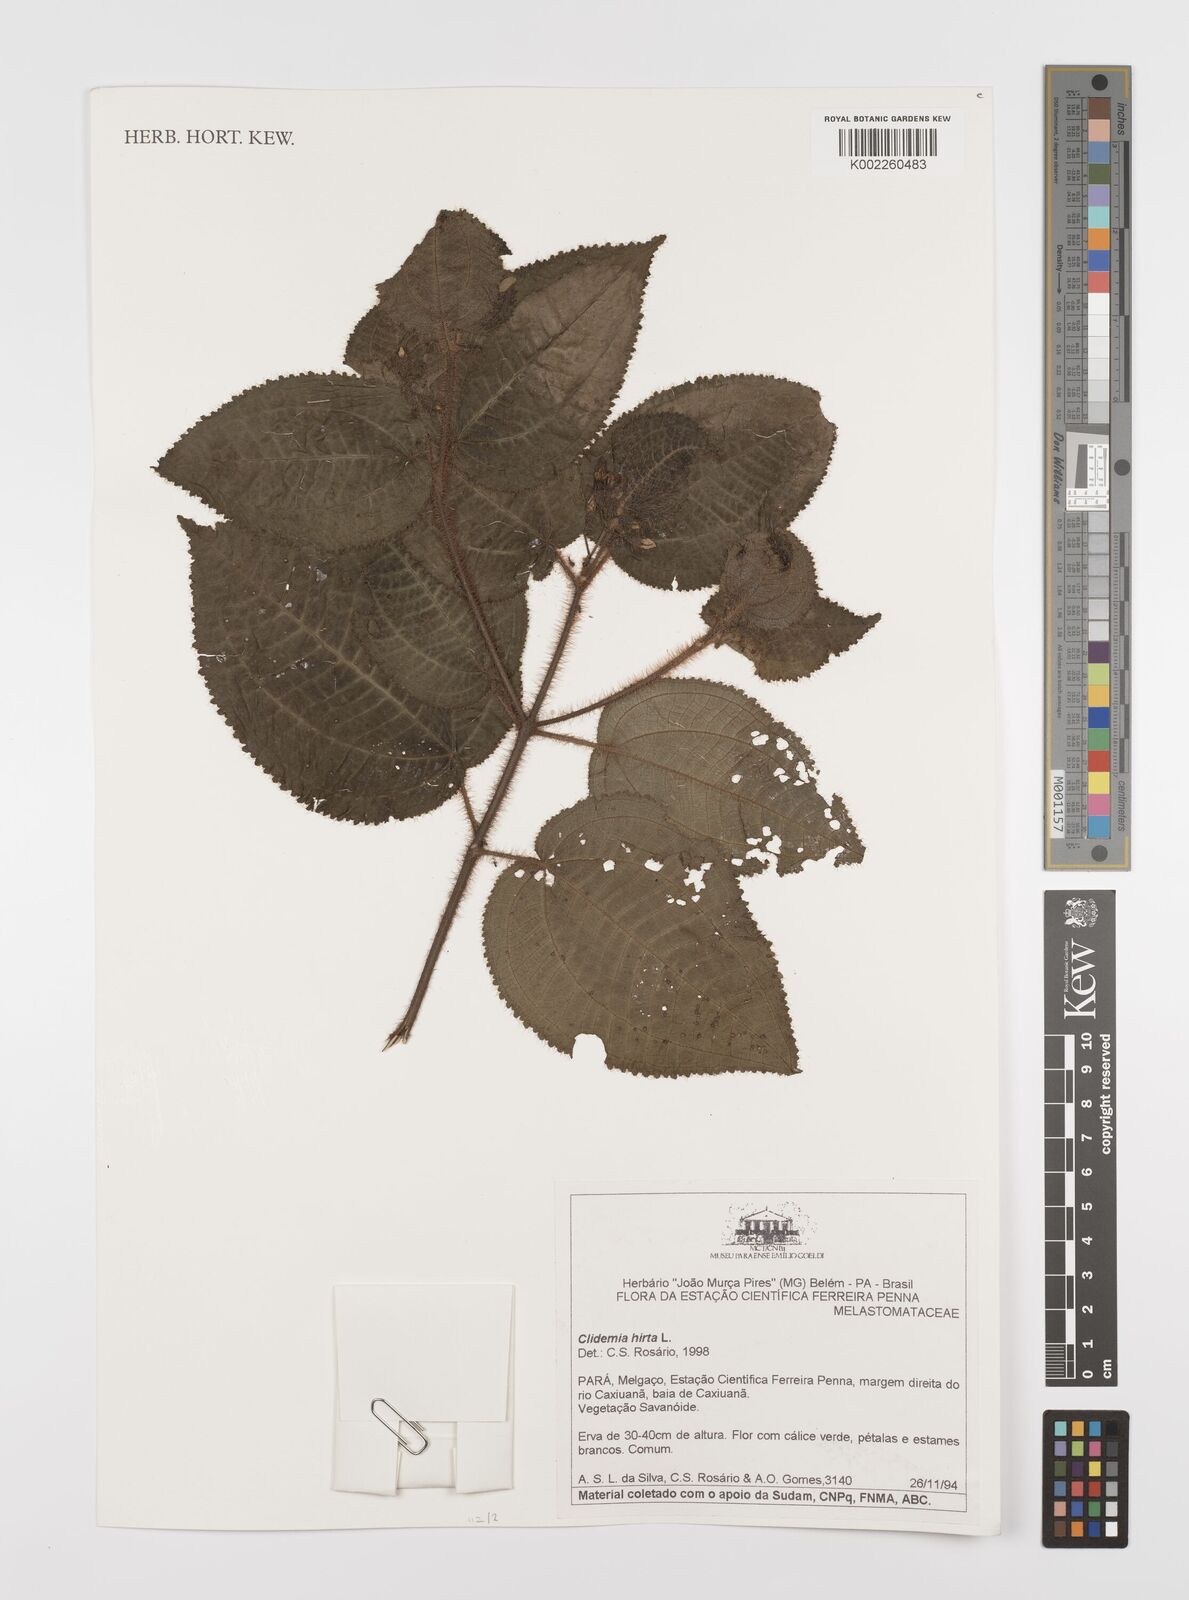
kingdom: Plantae
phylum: Tracheophyta
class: Magnoliopsida
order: Myrtales
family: Melastomataceae
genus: Miconia
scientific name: Miconia crenata
